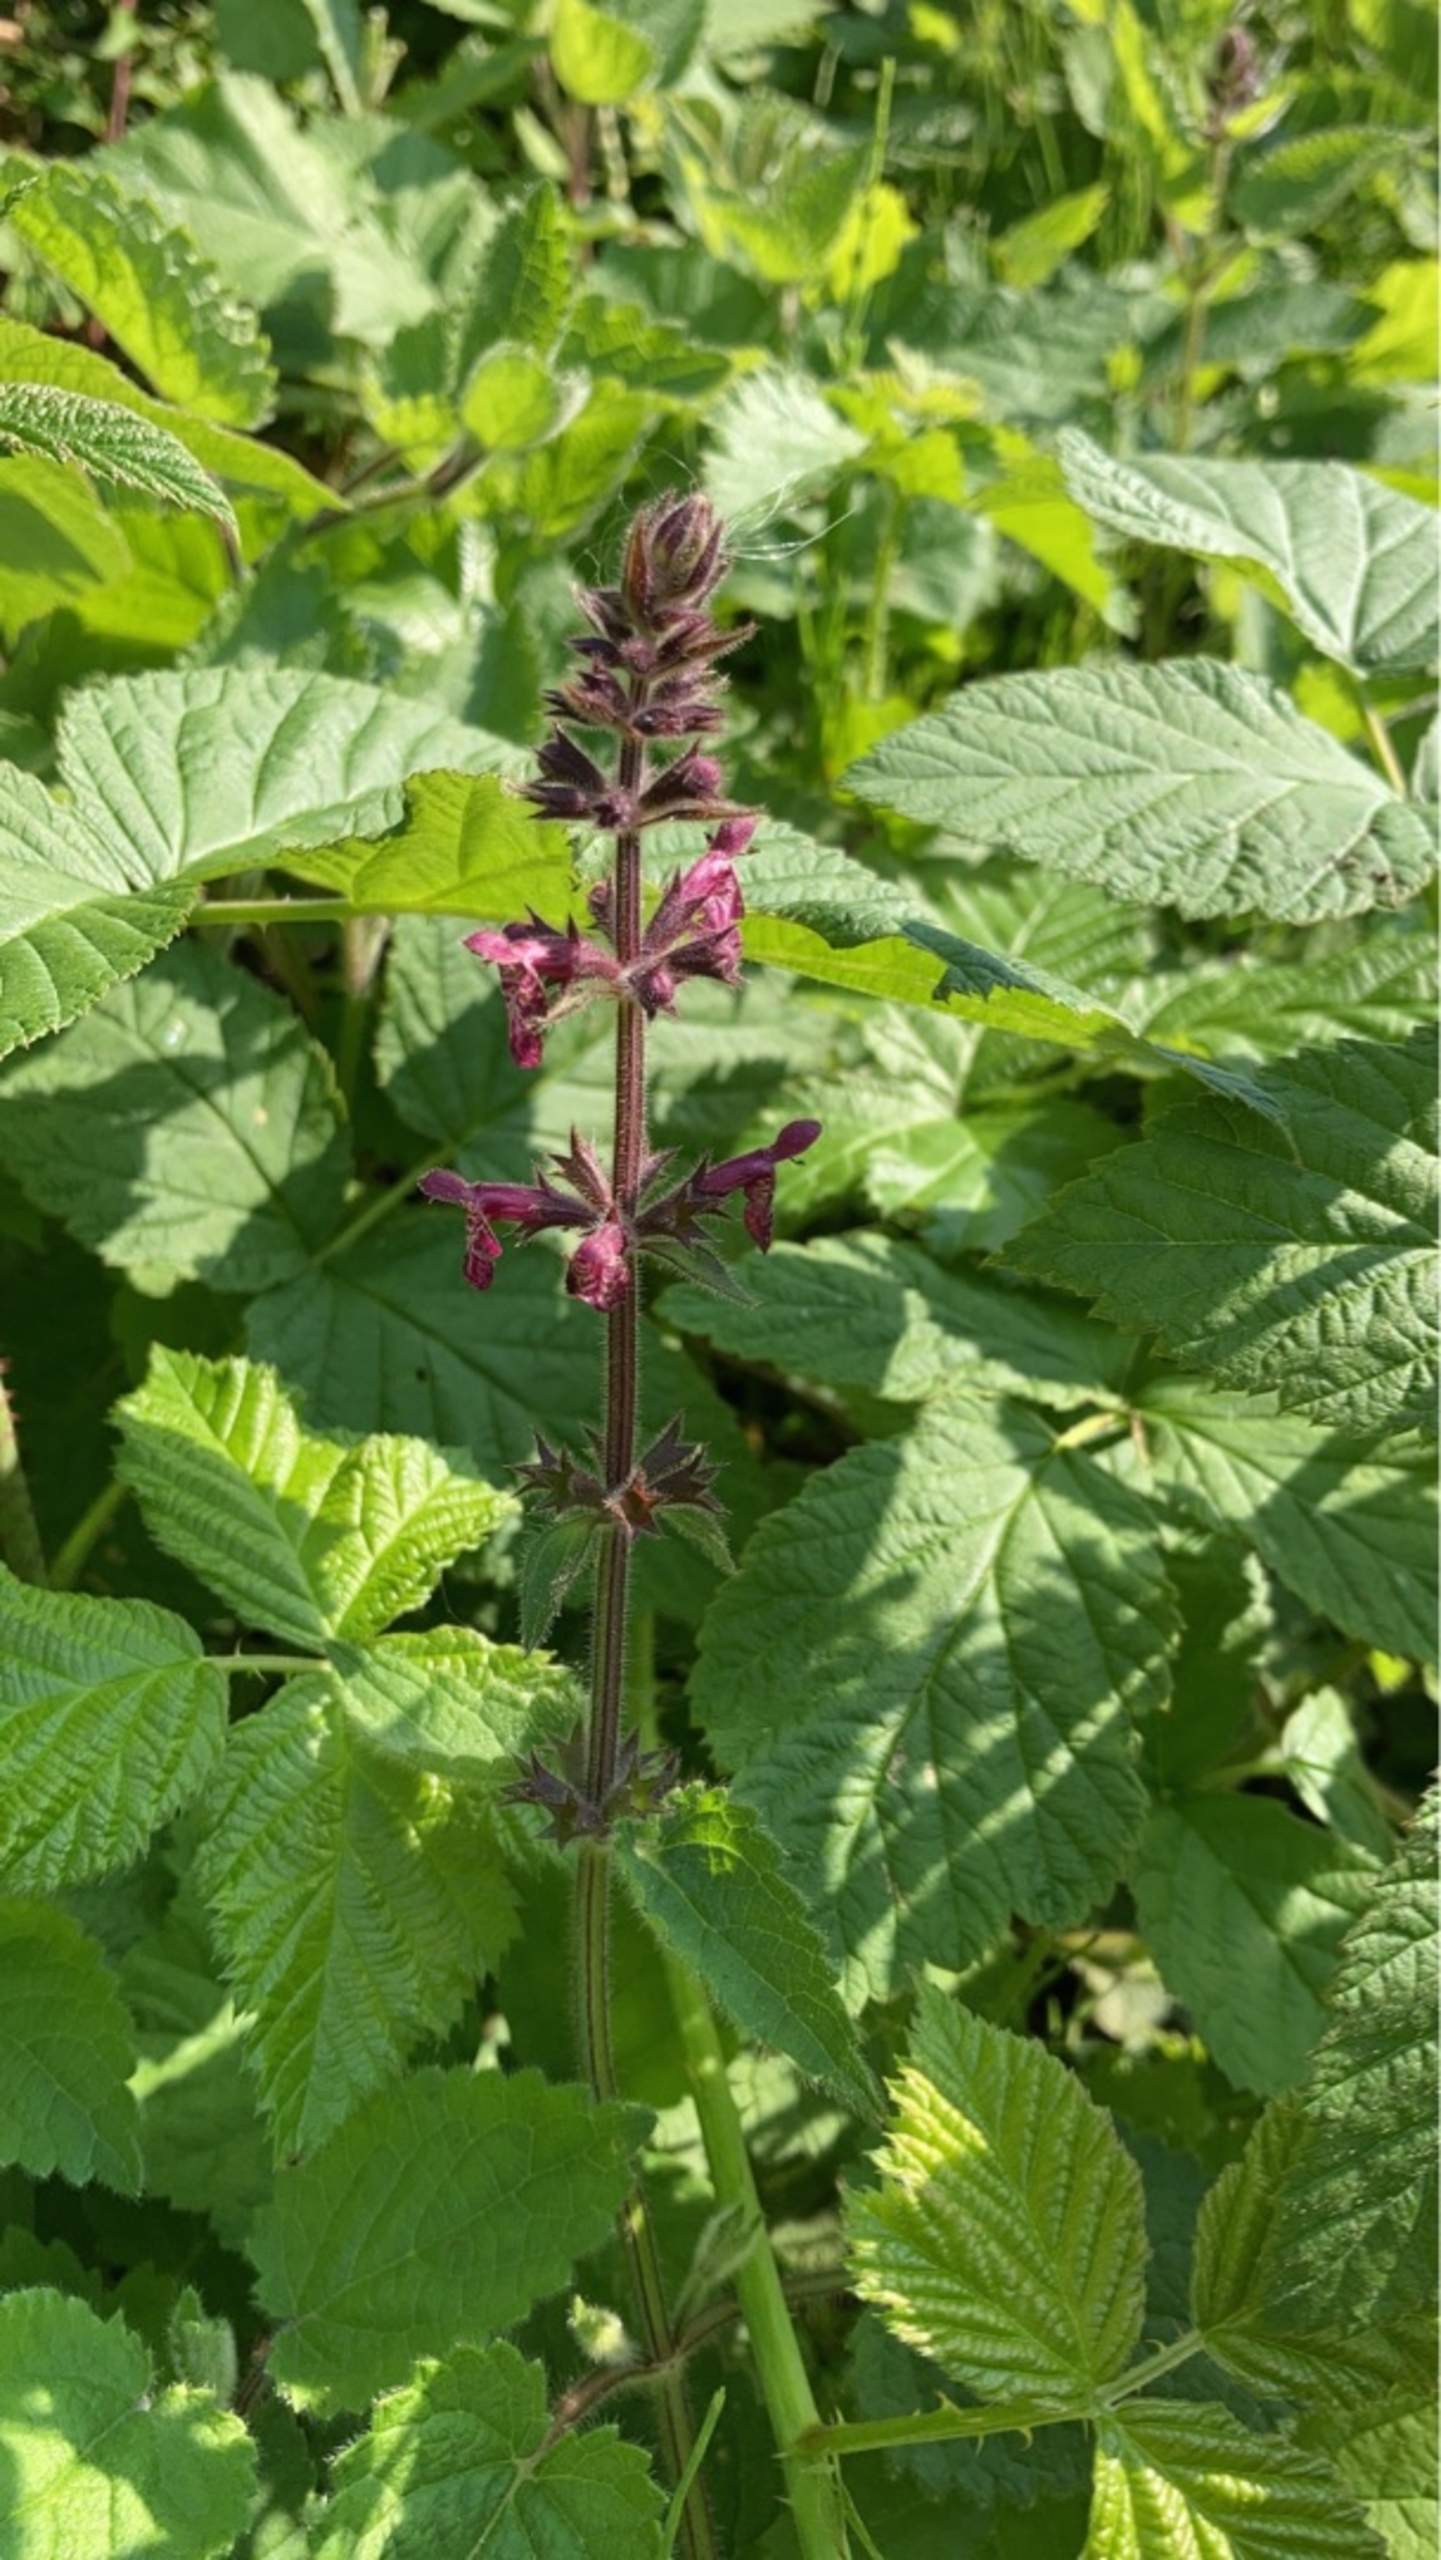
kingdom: Plantae
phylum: Tracheophyta
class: Magnoliopsida
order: Lamiales
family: Lamiaceae
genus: Stachys
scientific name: Stachys sylvatica
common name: Skov-galtetand
